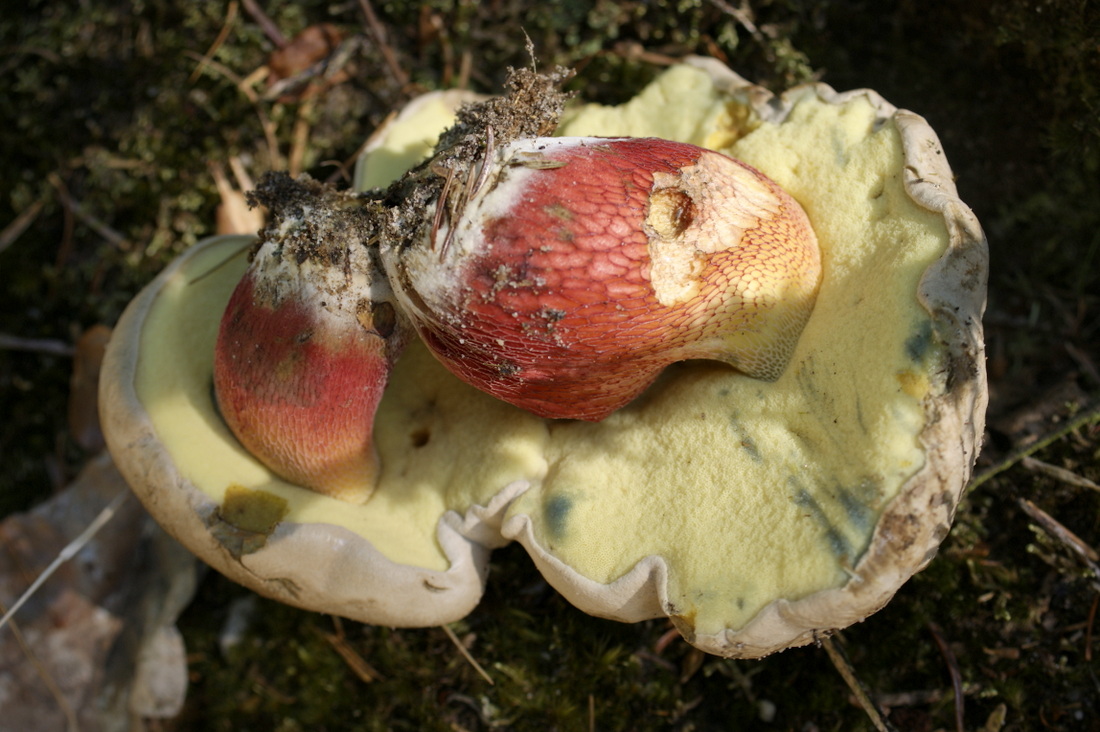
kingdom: Fungi
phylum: Basidiomycota
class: Agaricomycetes
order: Boletales
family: Boletaceae
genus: Caloboletus
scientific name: Caloboletus calopus
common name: skønfodet rørhat
